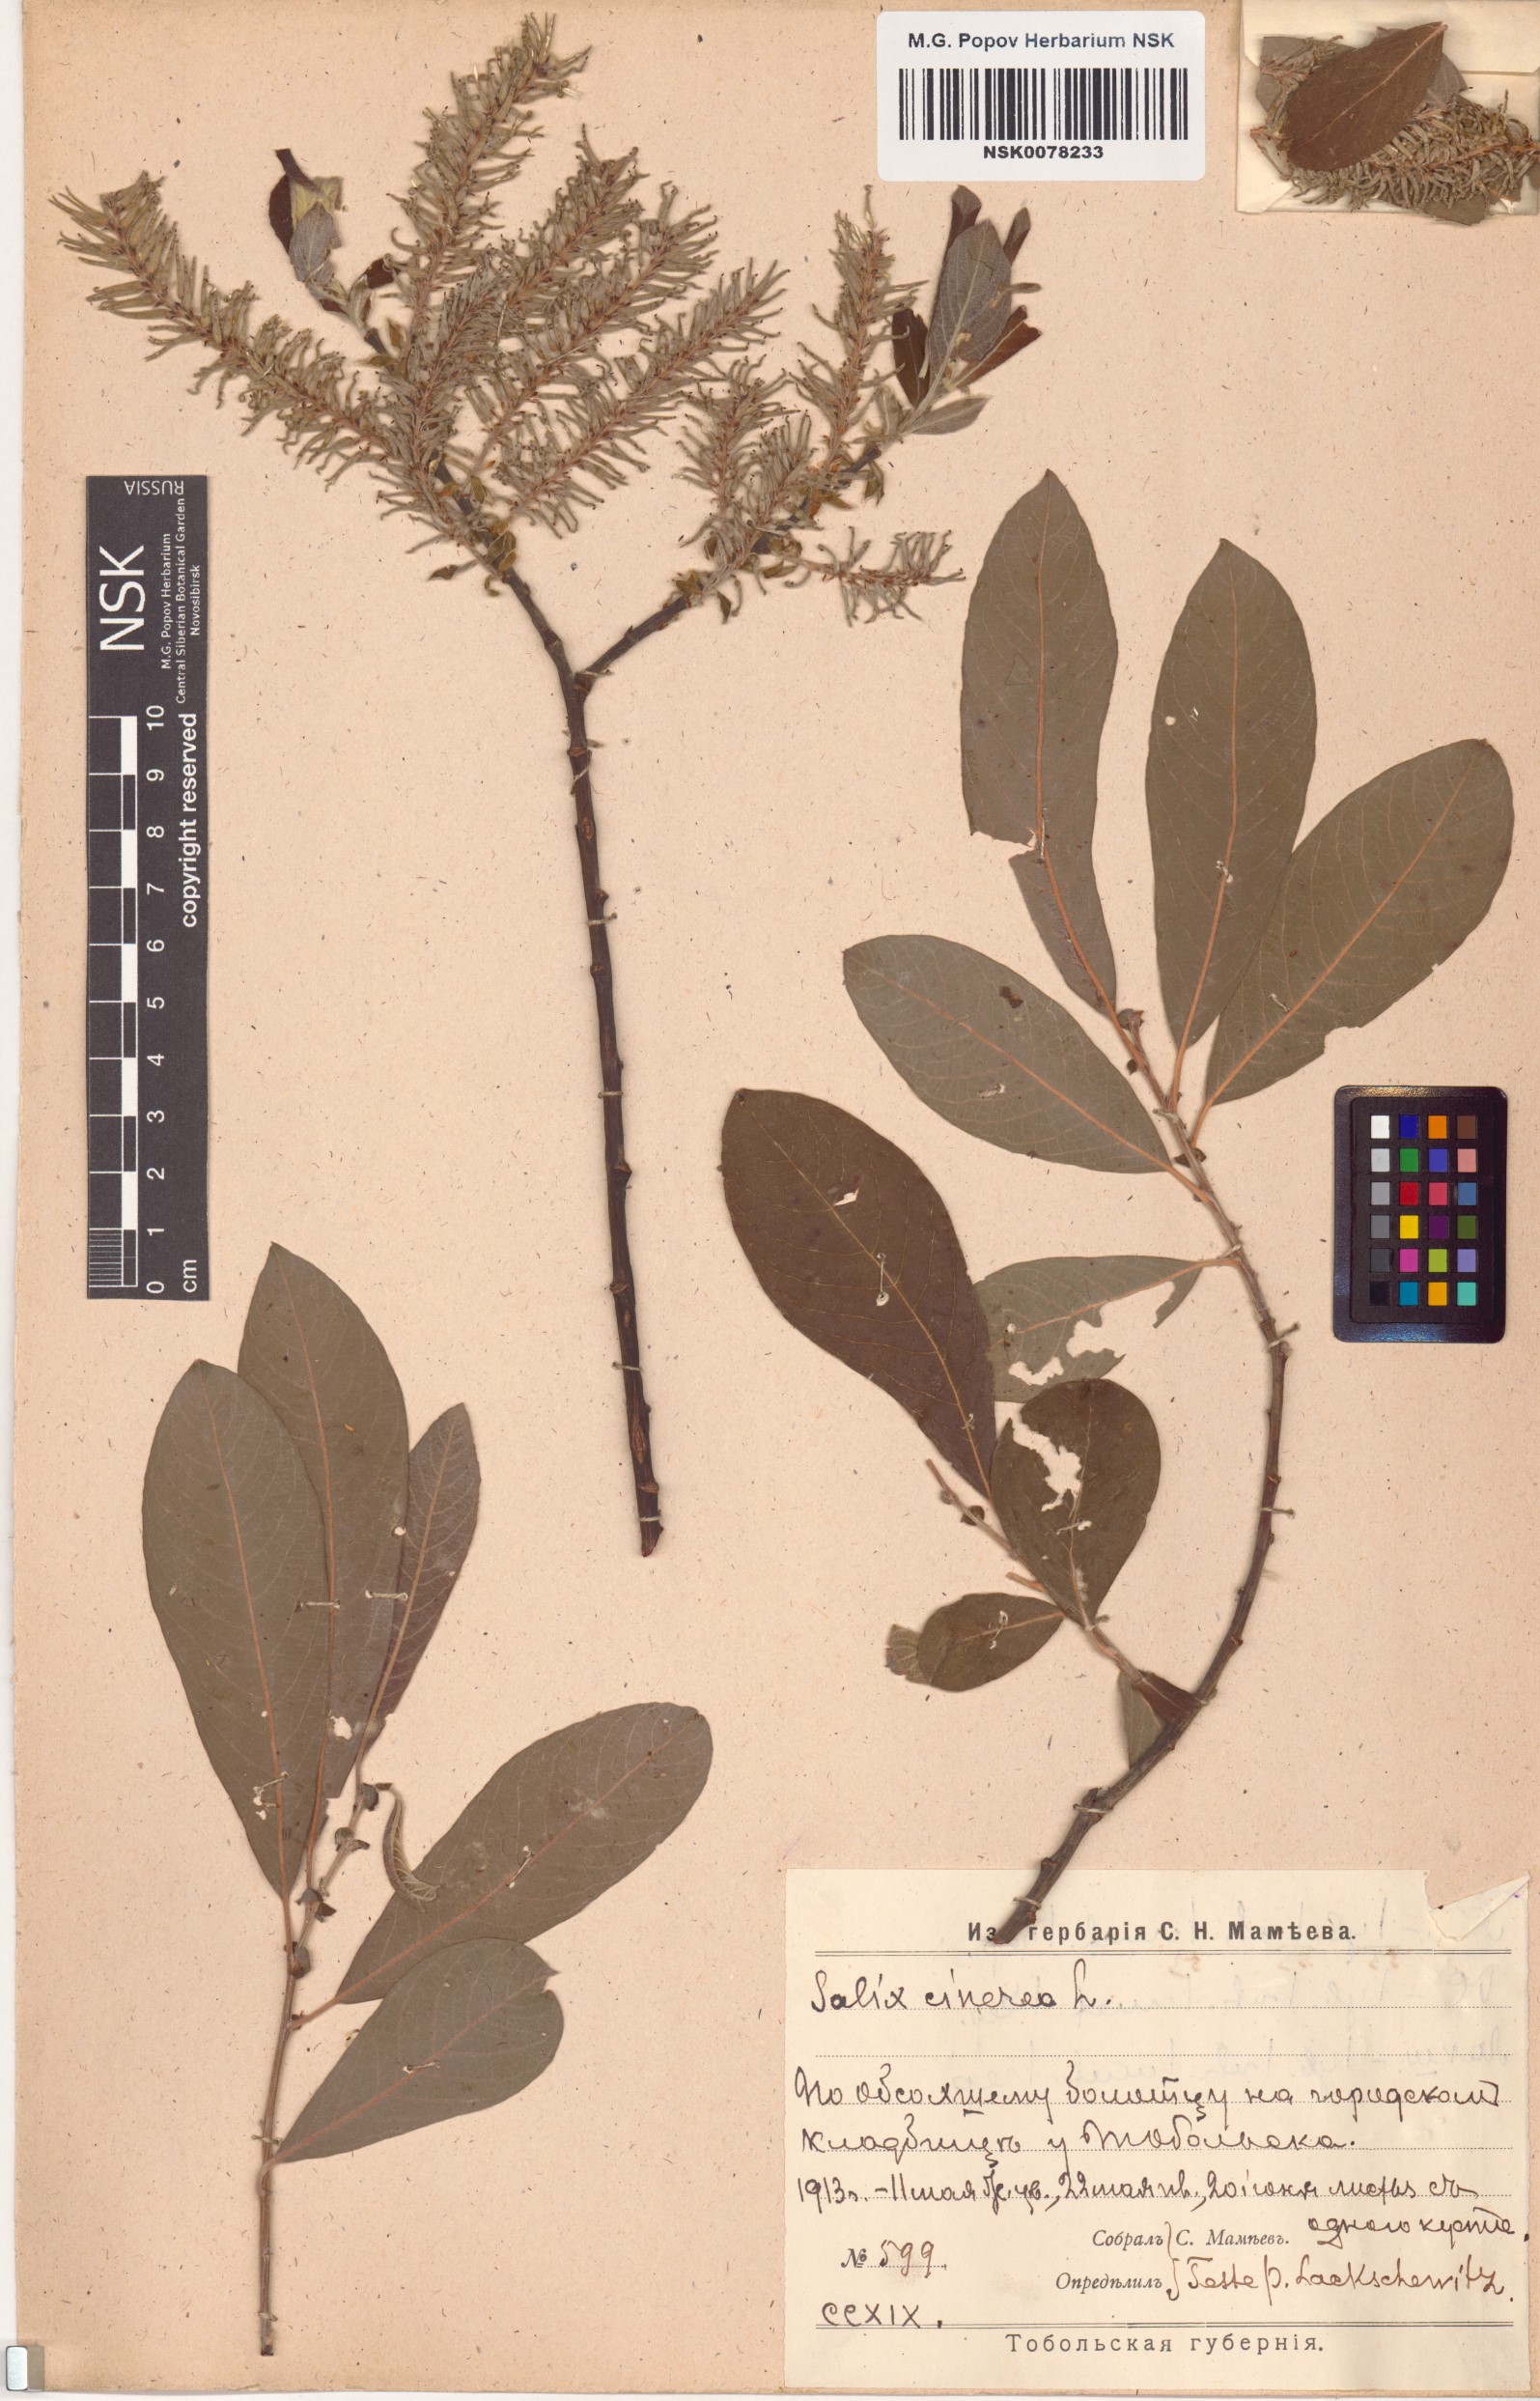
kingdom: Plantae
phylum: Tracheophyta
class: Magnoliopsida
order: Malpighiales
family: Salicaceae
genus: Salix
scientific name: Salix cinerea
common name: Common sallow
